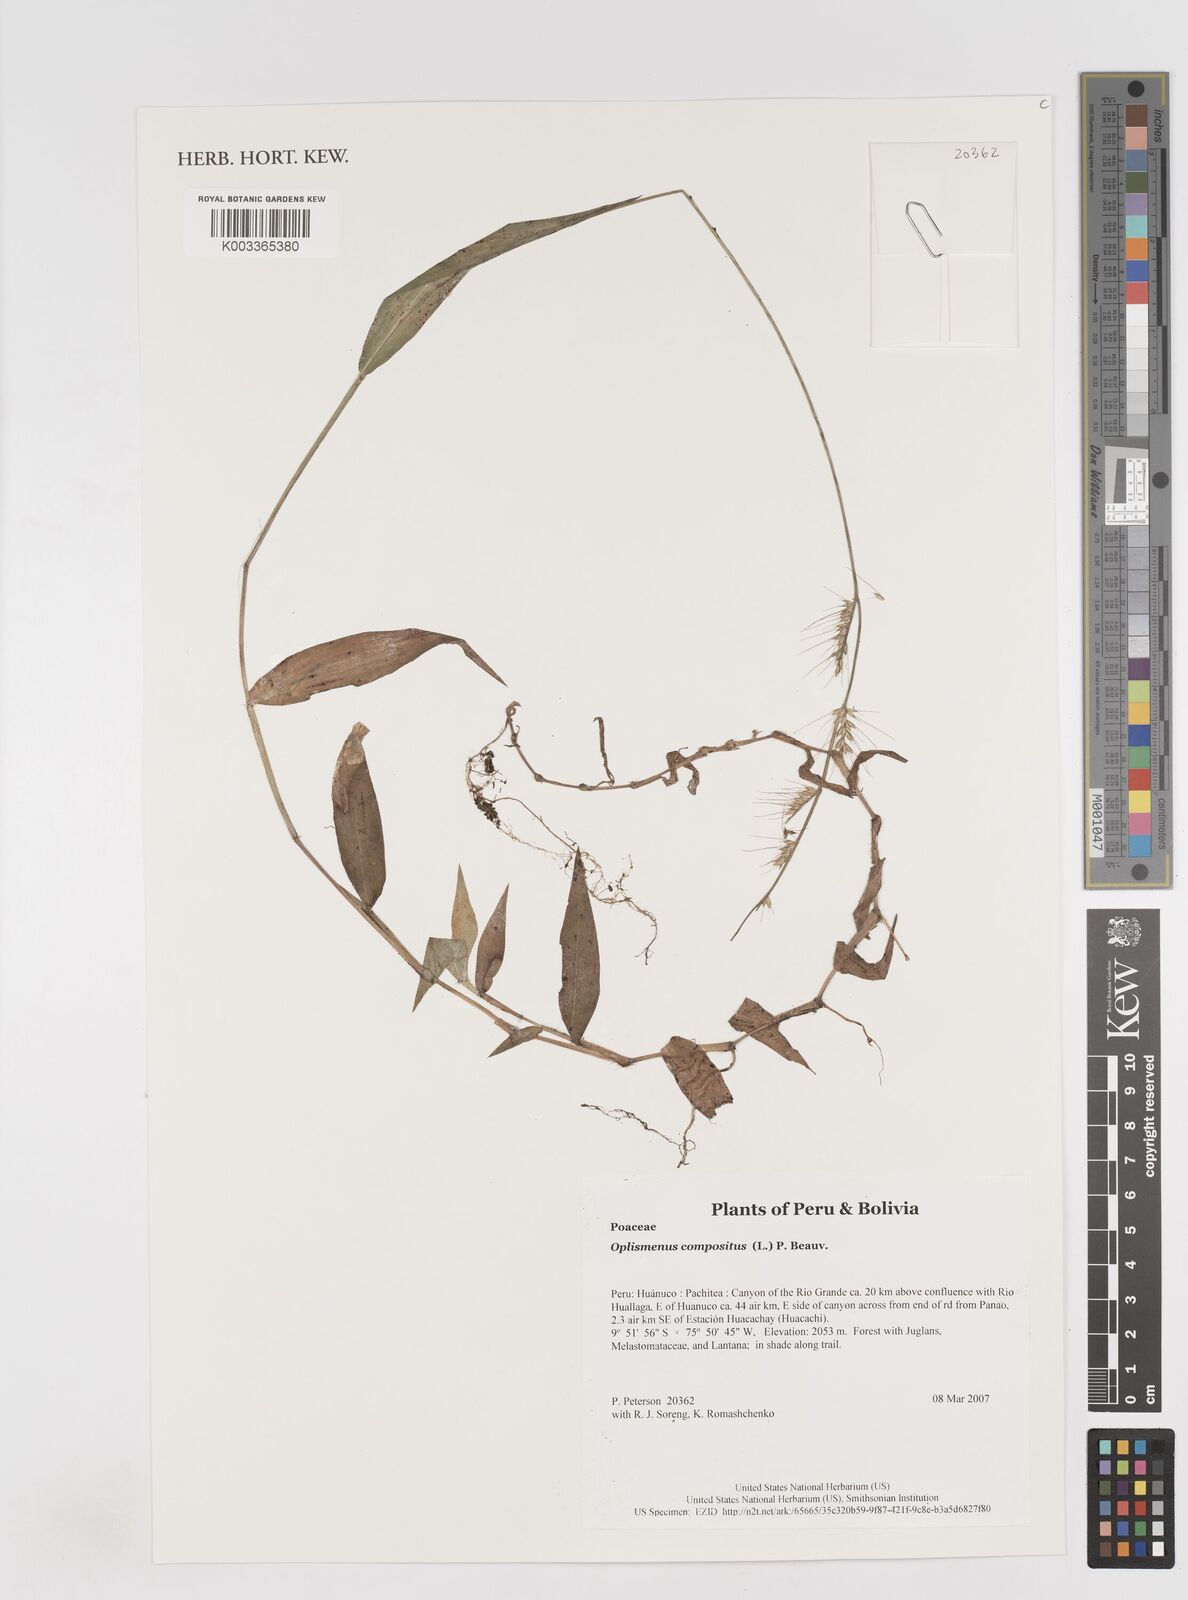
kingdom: Plantae
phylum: Tracheophyta
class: Liliopsida
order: Poales
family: Poaceae
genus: Oplismenus
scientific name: Oplismenus compositus
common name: Running mountain grass
